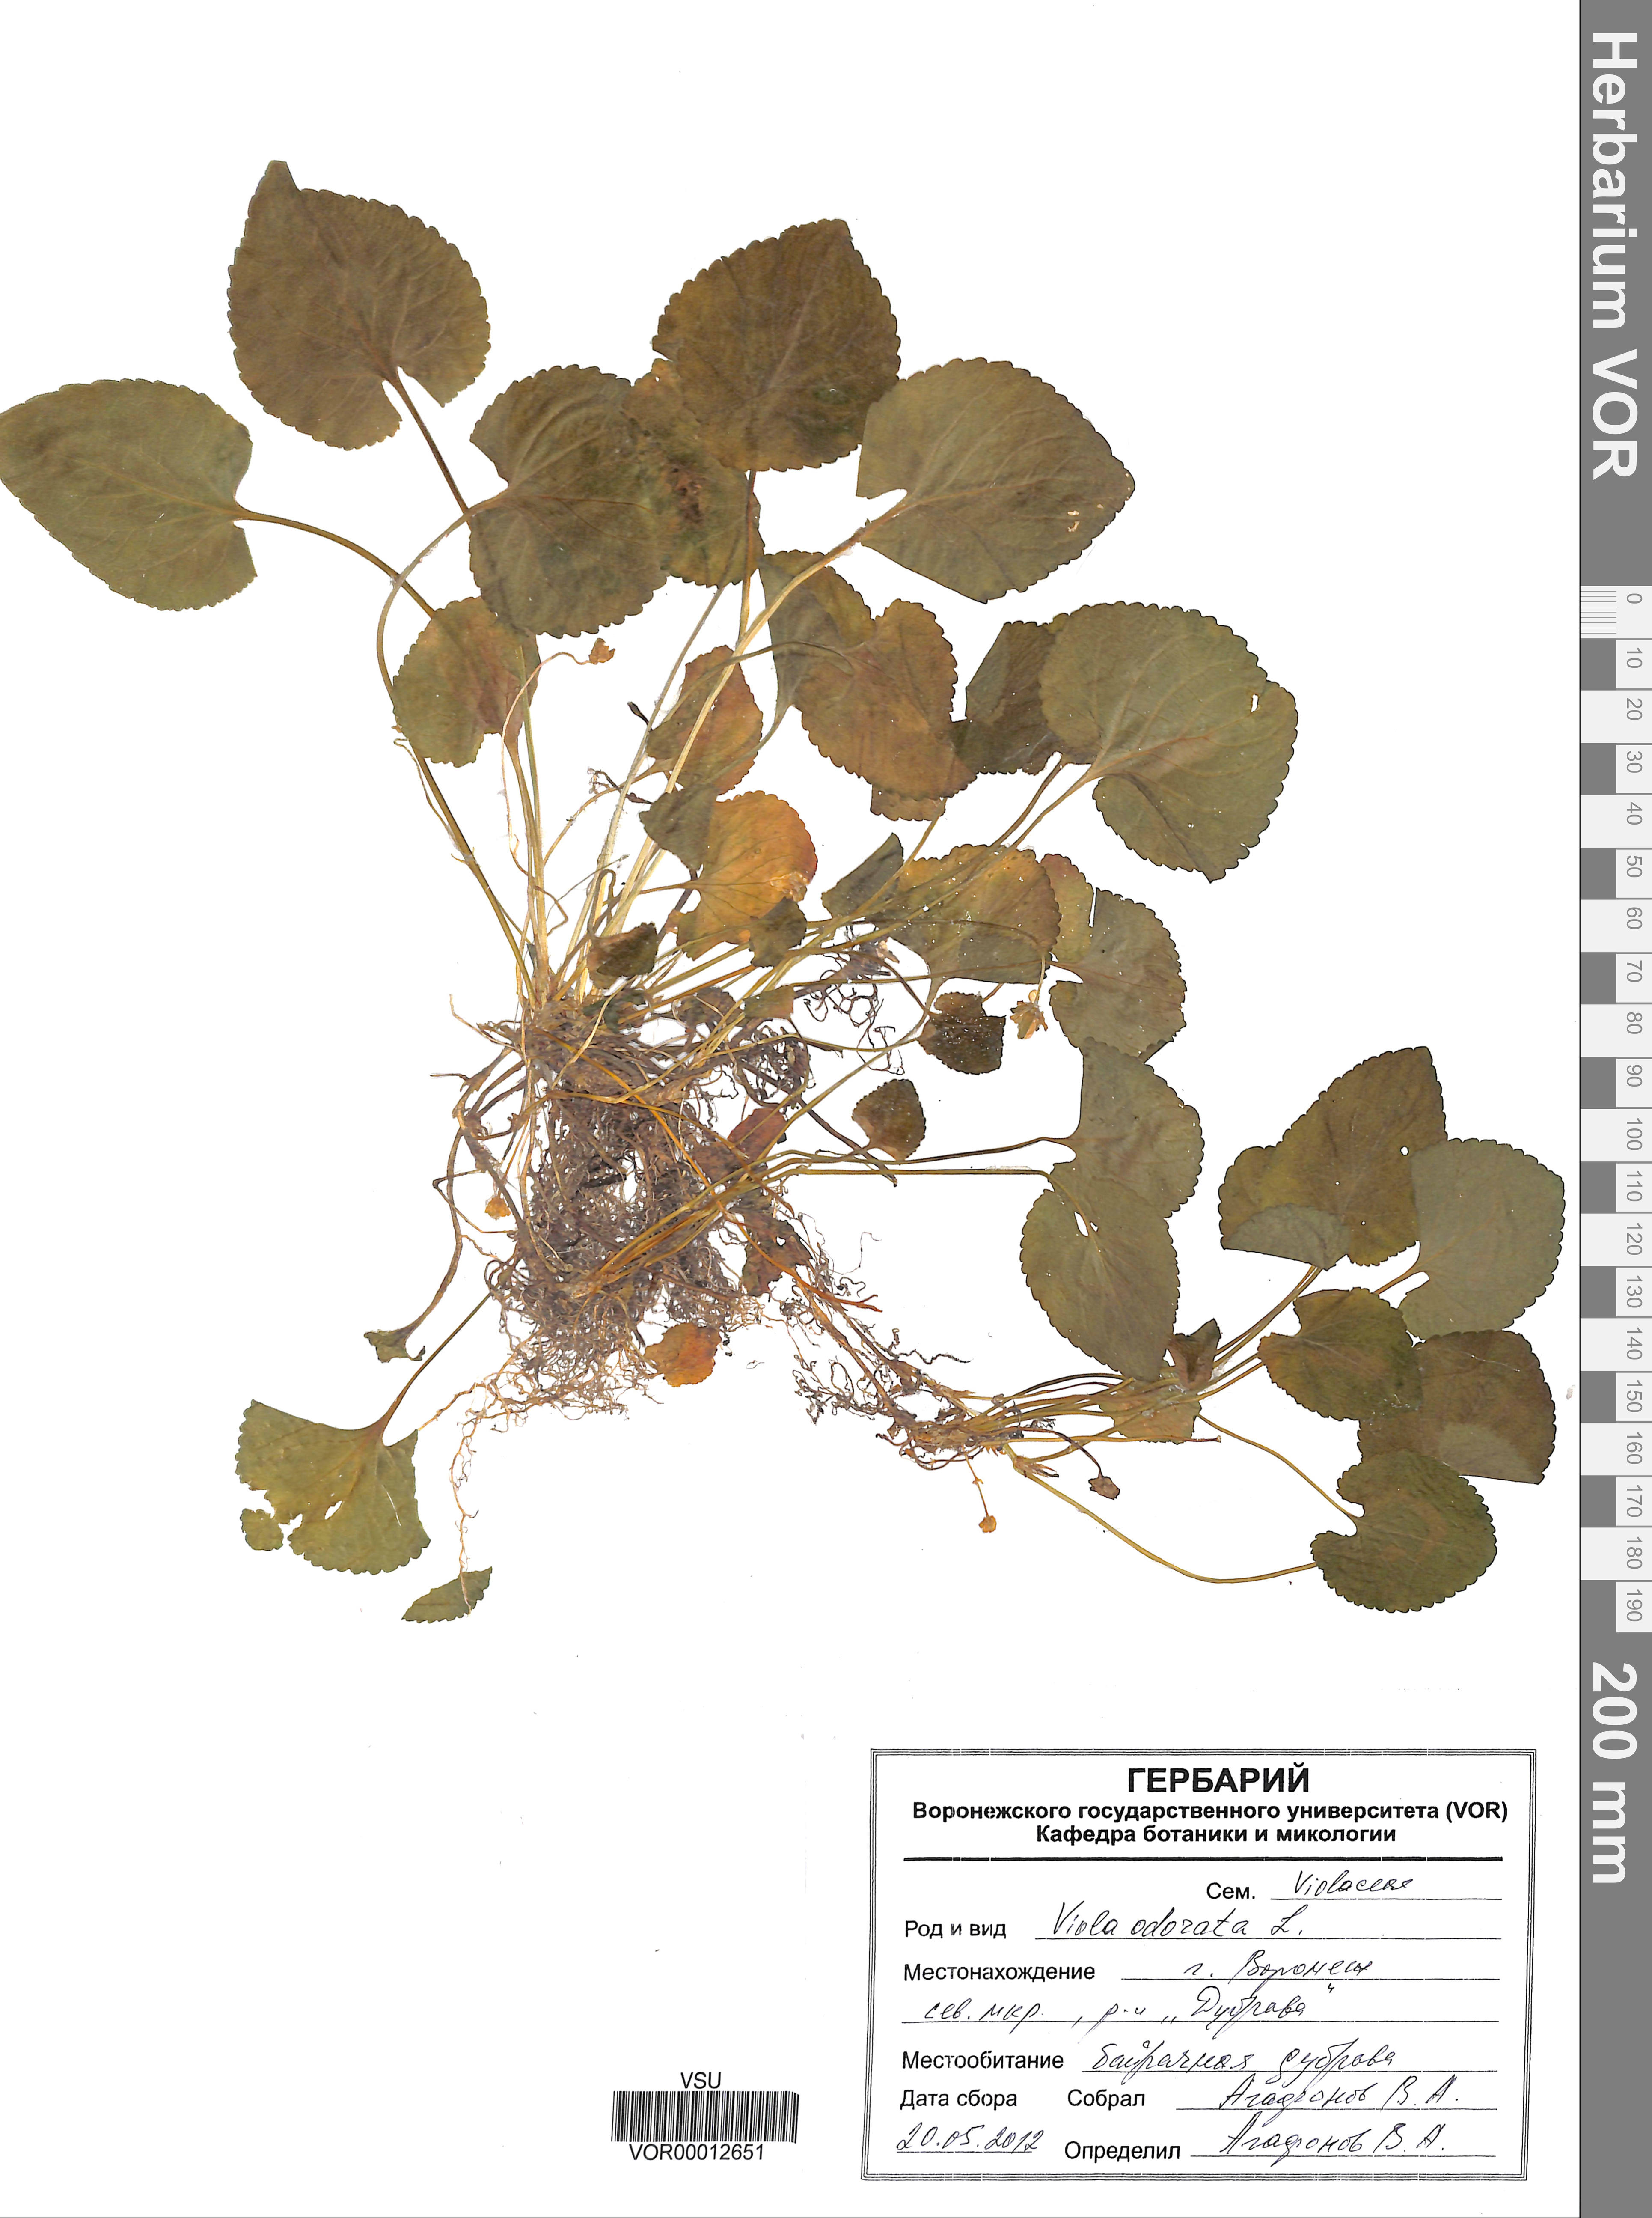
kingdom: Plantae
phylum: Tracheophyta
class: Magnoliopsida
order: Malpighiales
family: Violaceae
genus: Viola
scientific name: Viola odorata
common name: Sweet violet
